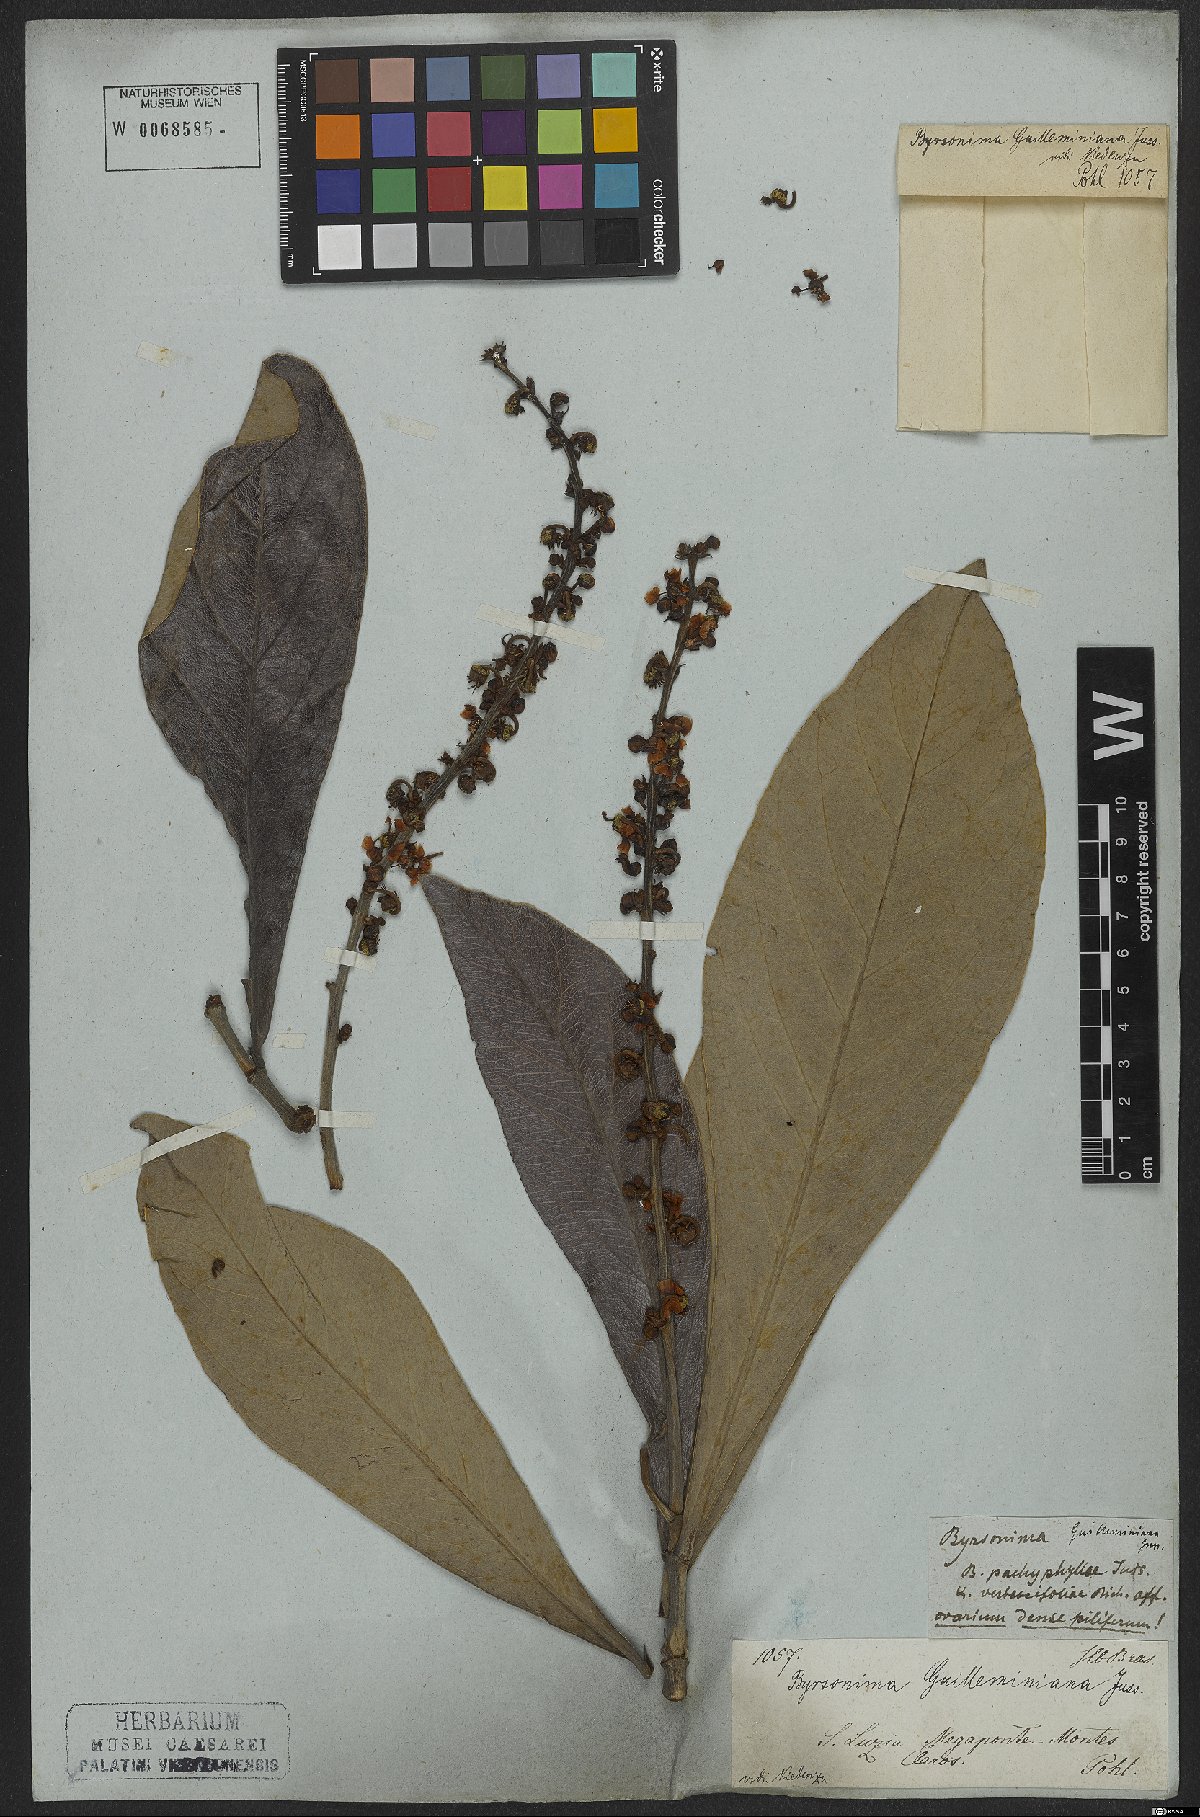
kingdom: Plantae
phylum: Tracheophyta
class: Magnoliopsida
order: Malpighiales
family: Malpighiaceae
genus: Byrsonima
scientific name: Byrsonima guilleminiana
